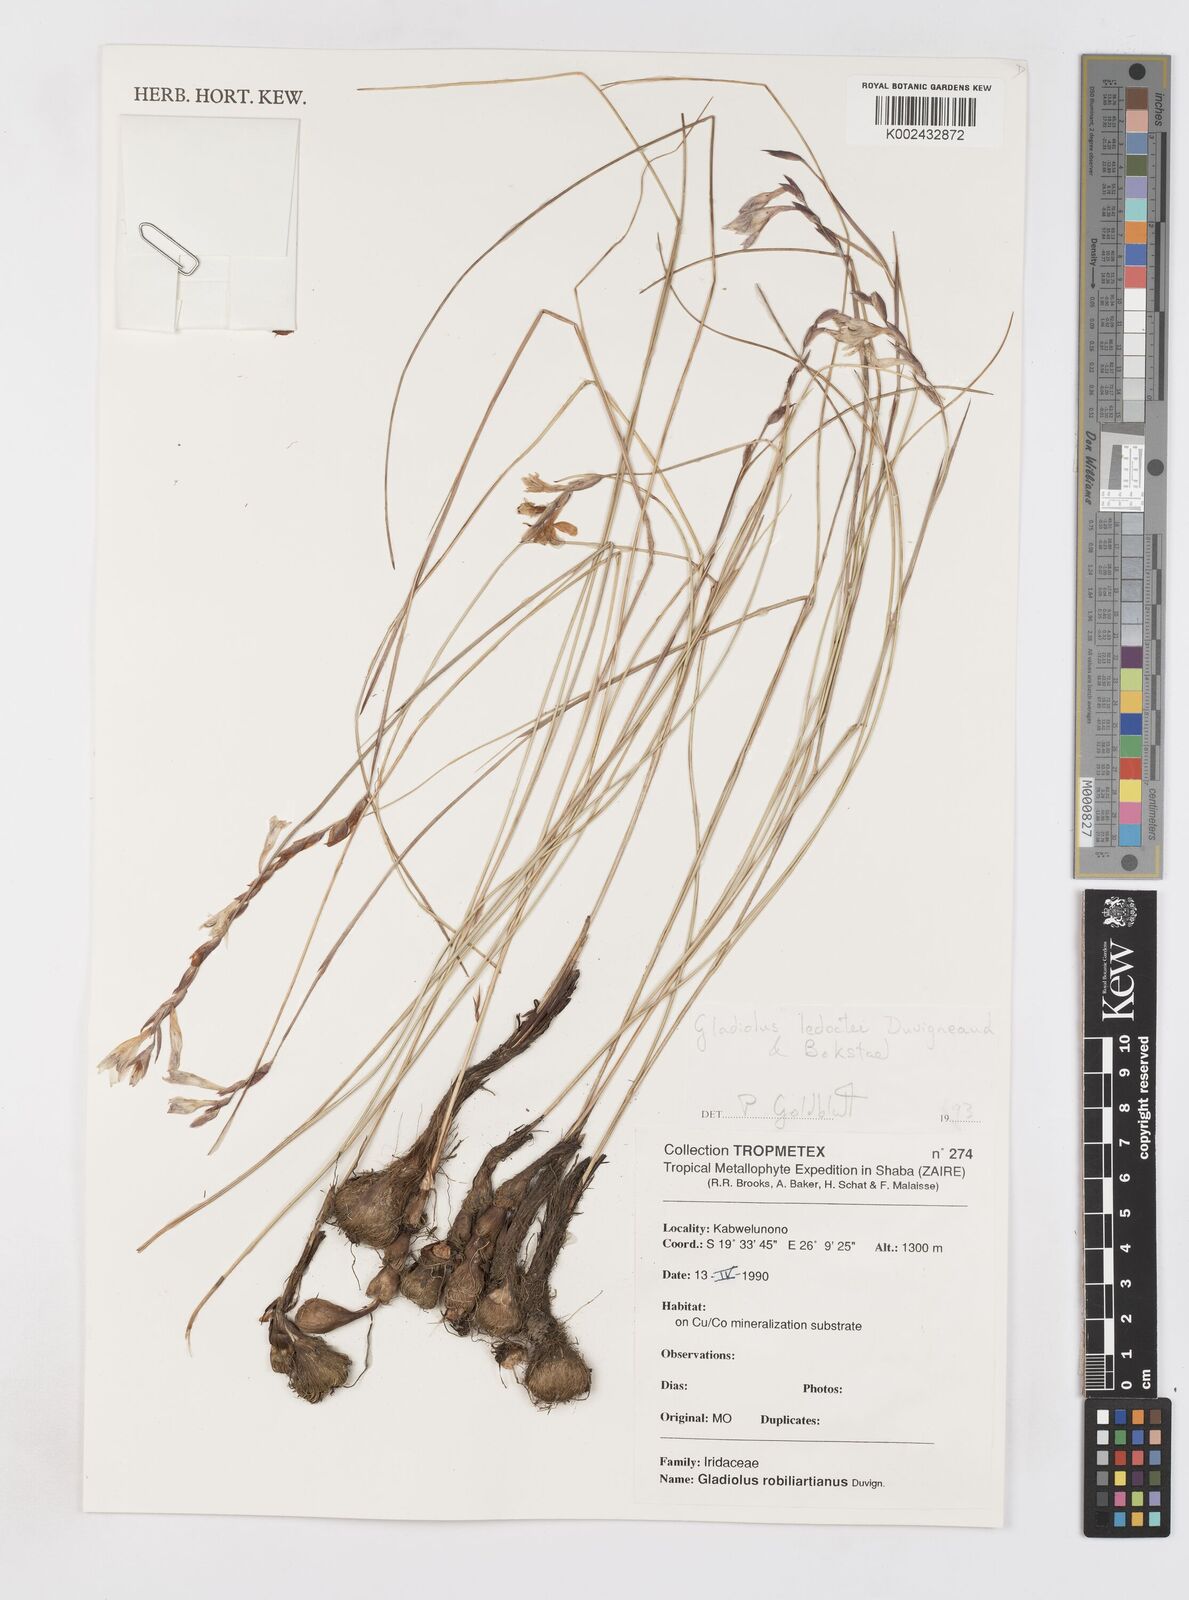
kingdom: Plantae
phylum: Tracheophyta
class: Liliopsida
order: Asparagales
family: Iridaceae
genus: Gladiolus
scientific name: Gladiolus ledoctei
